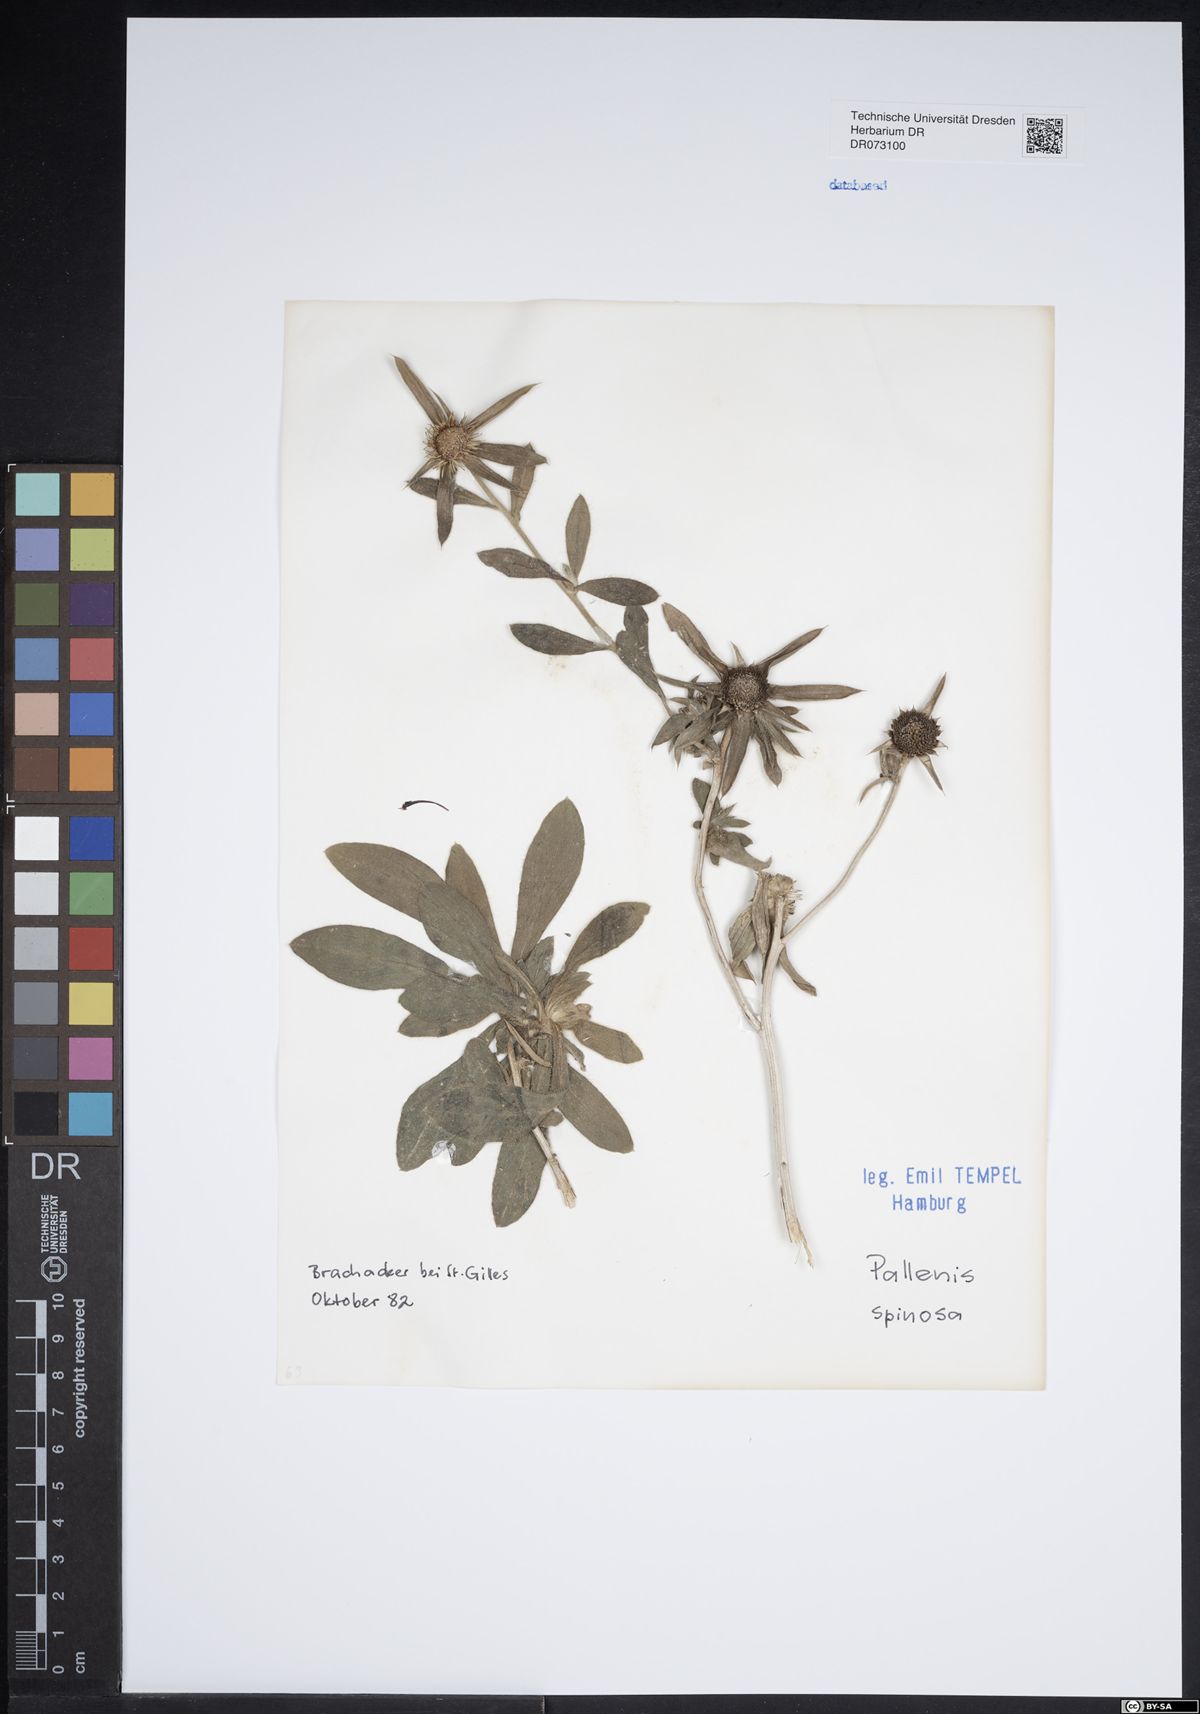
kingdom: Plantae
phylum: Tracheophyta
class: Magnoliopsida
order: Asterales
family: Asteraceae
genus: Aster
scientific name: Aster amellus
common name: European michaelmas daisy
